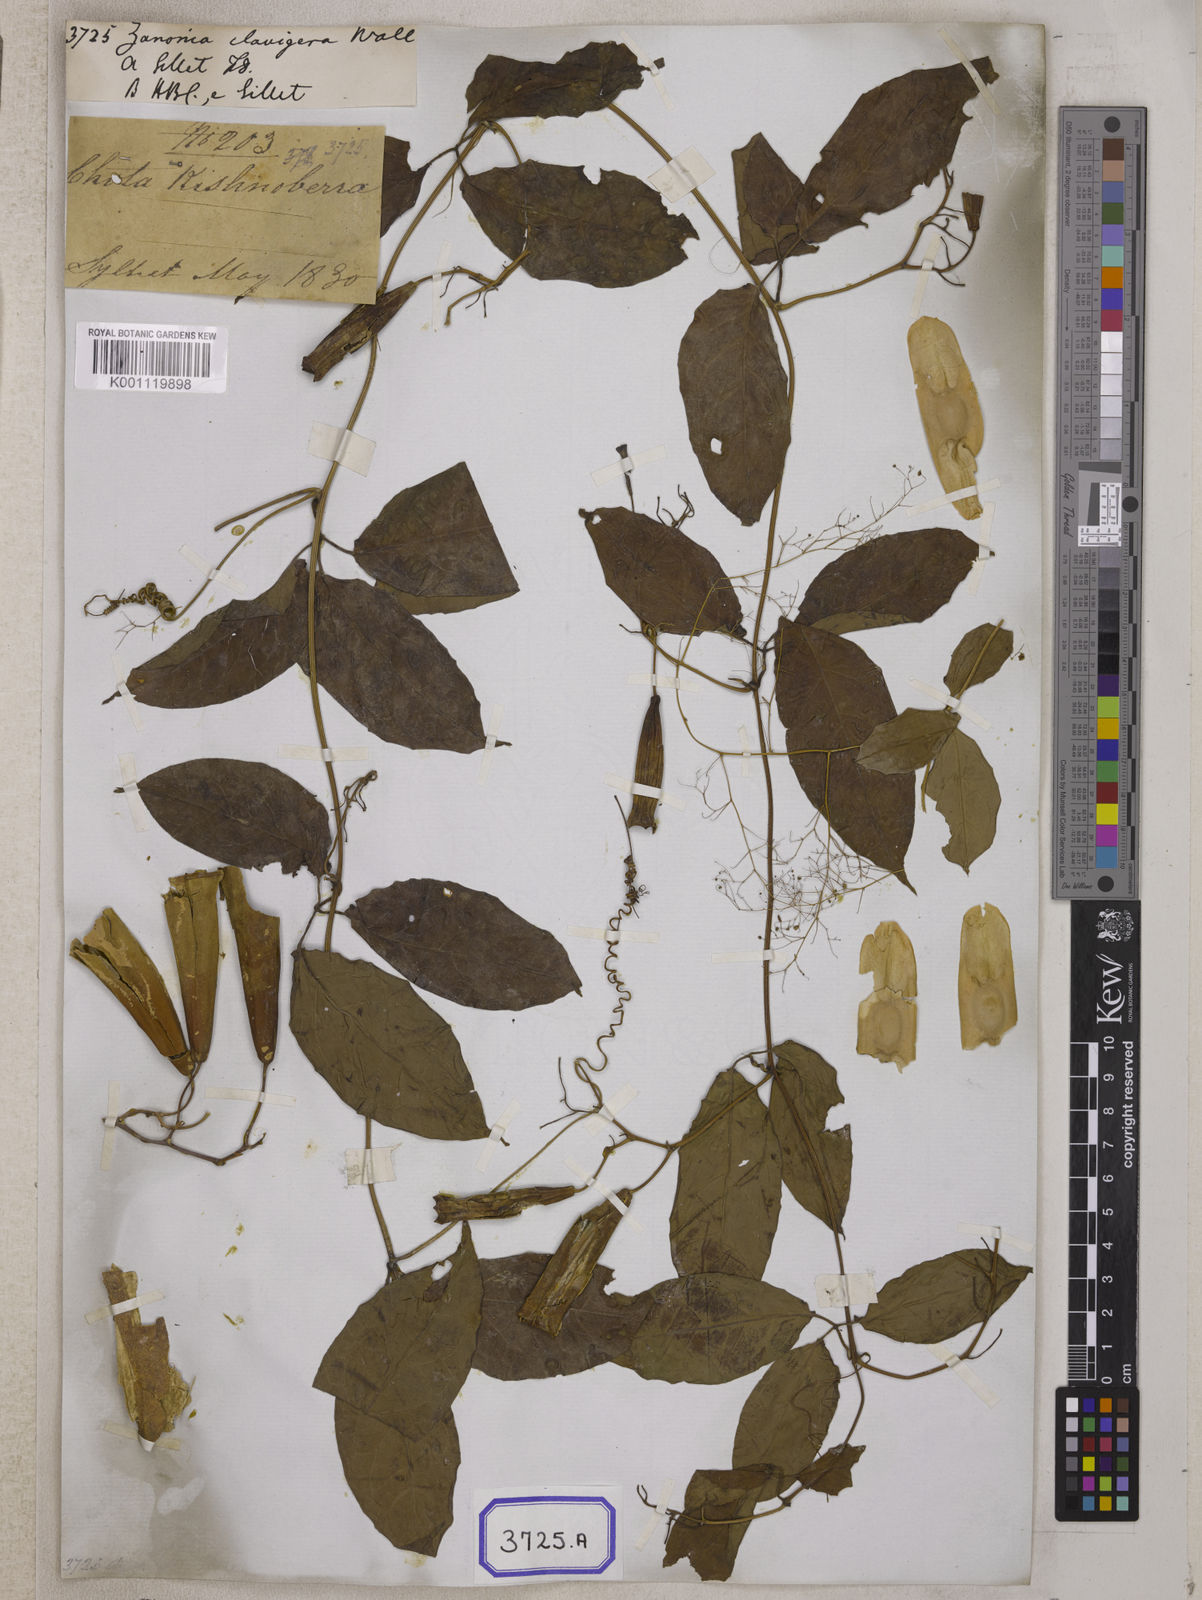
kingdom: Plantae
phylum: Tracheophyta
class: Magnoliopsida
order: Cucurbitales
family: Cucurbitaceae
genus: Neoalsomitra
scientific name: Neoalsomitra clavigera
